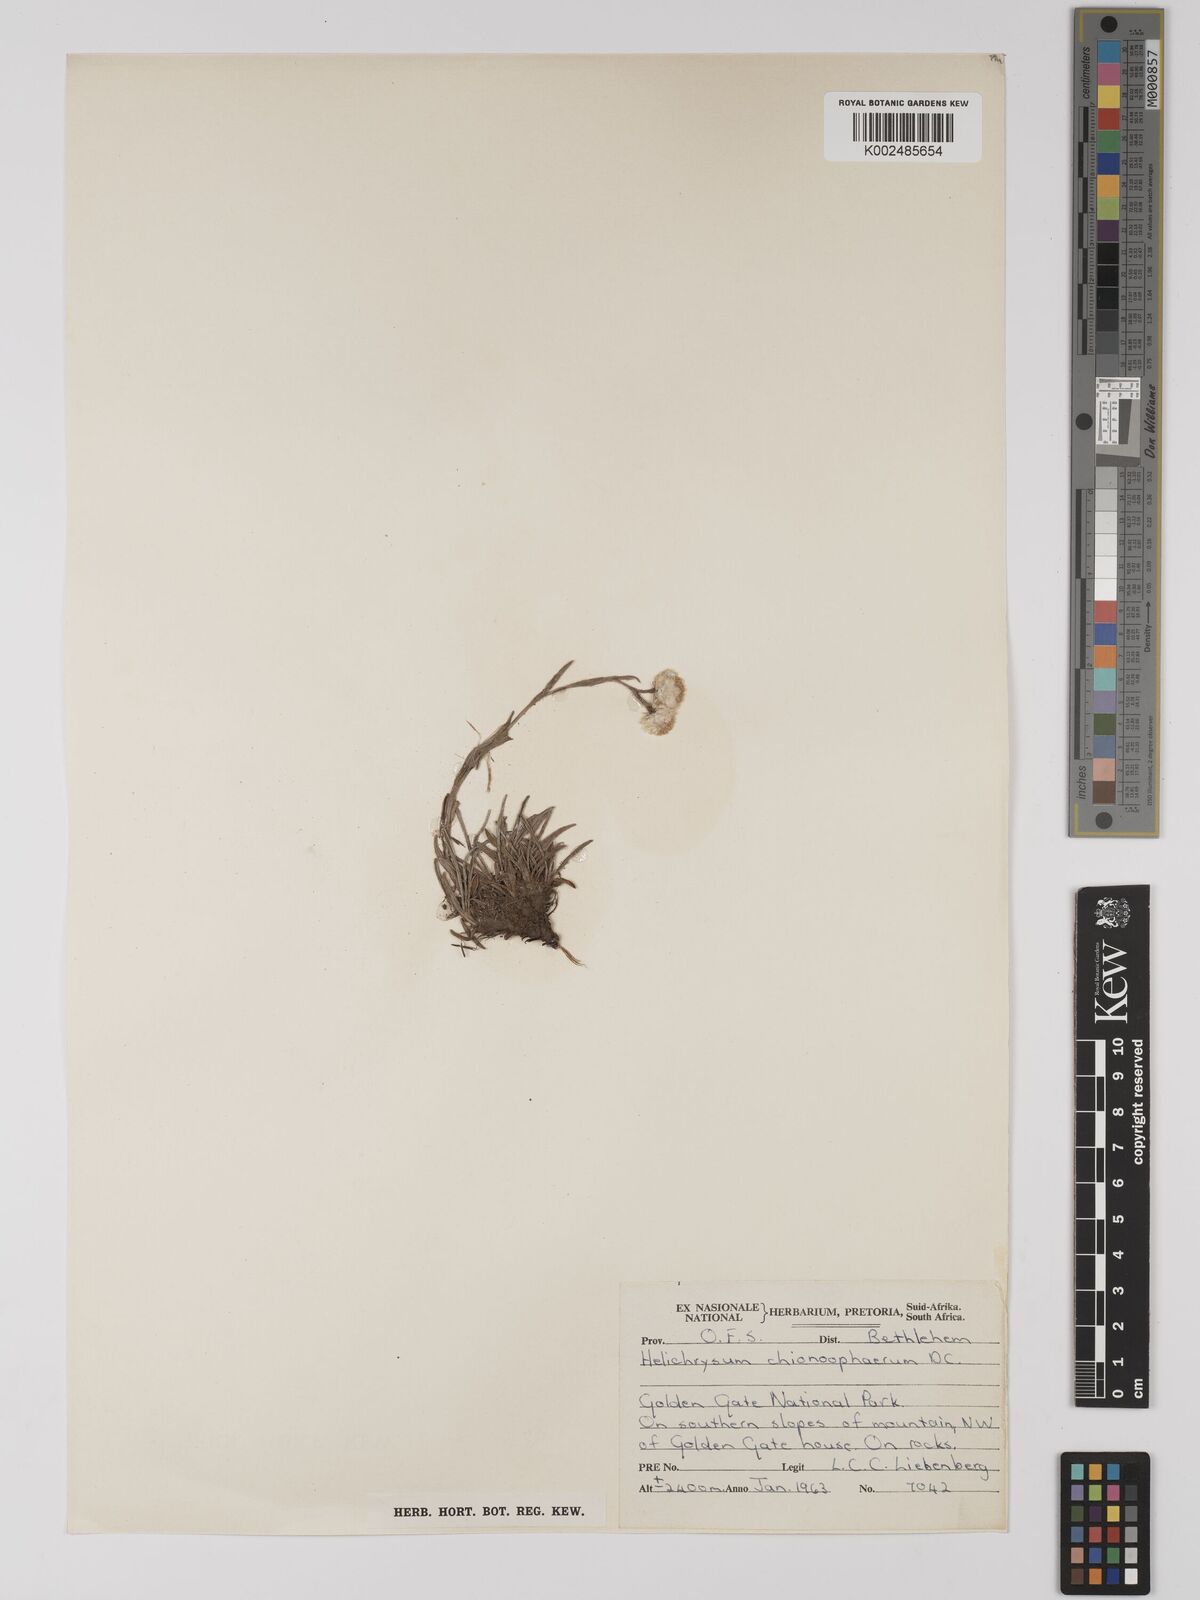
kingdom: Plantae
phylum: Tracheophyta
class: Magnoliopsida
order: Asterales
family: Asteraceae
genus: Helichrysum
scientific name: Helichrysum chionosphaerum
